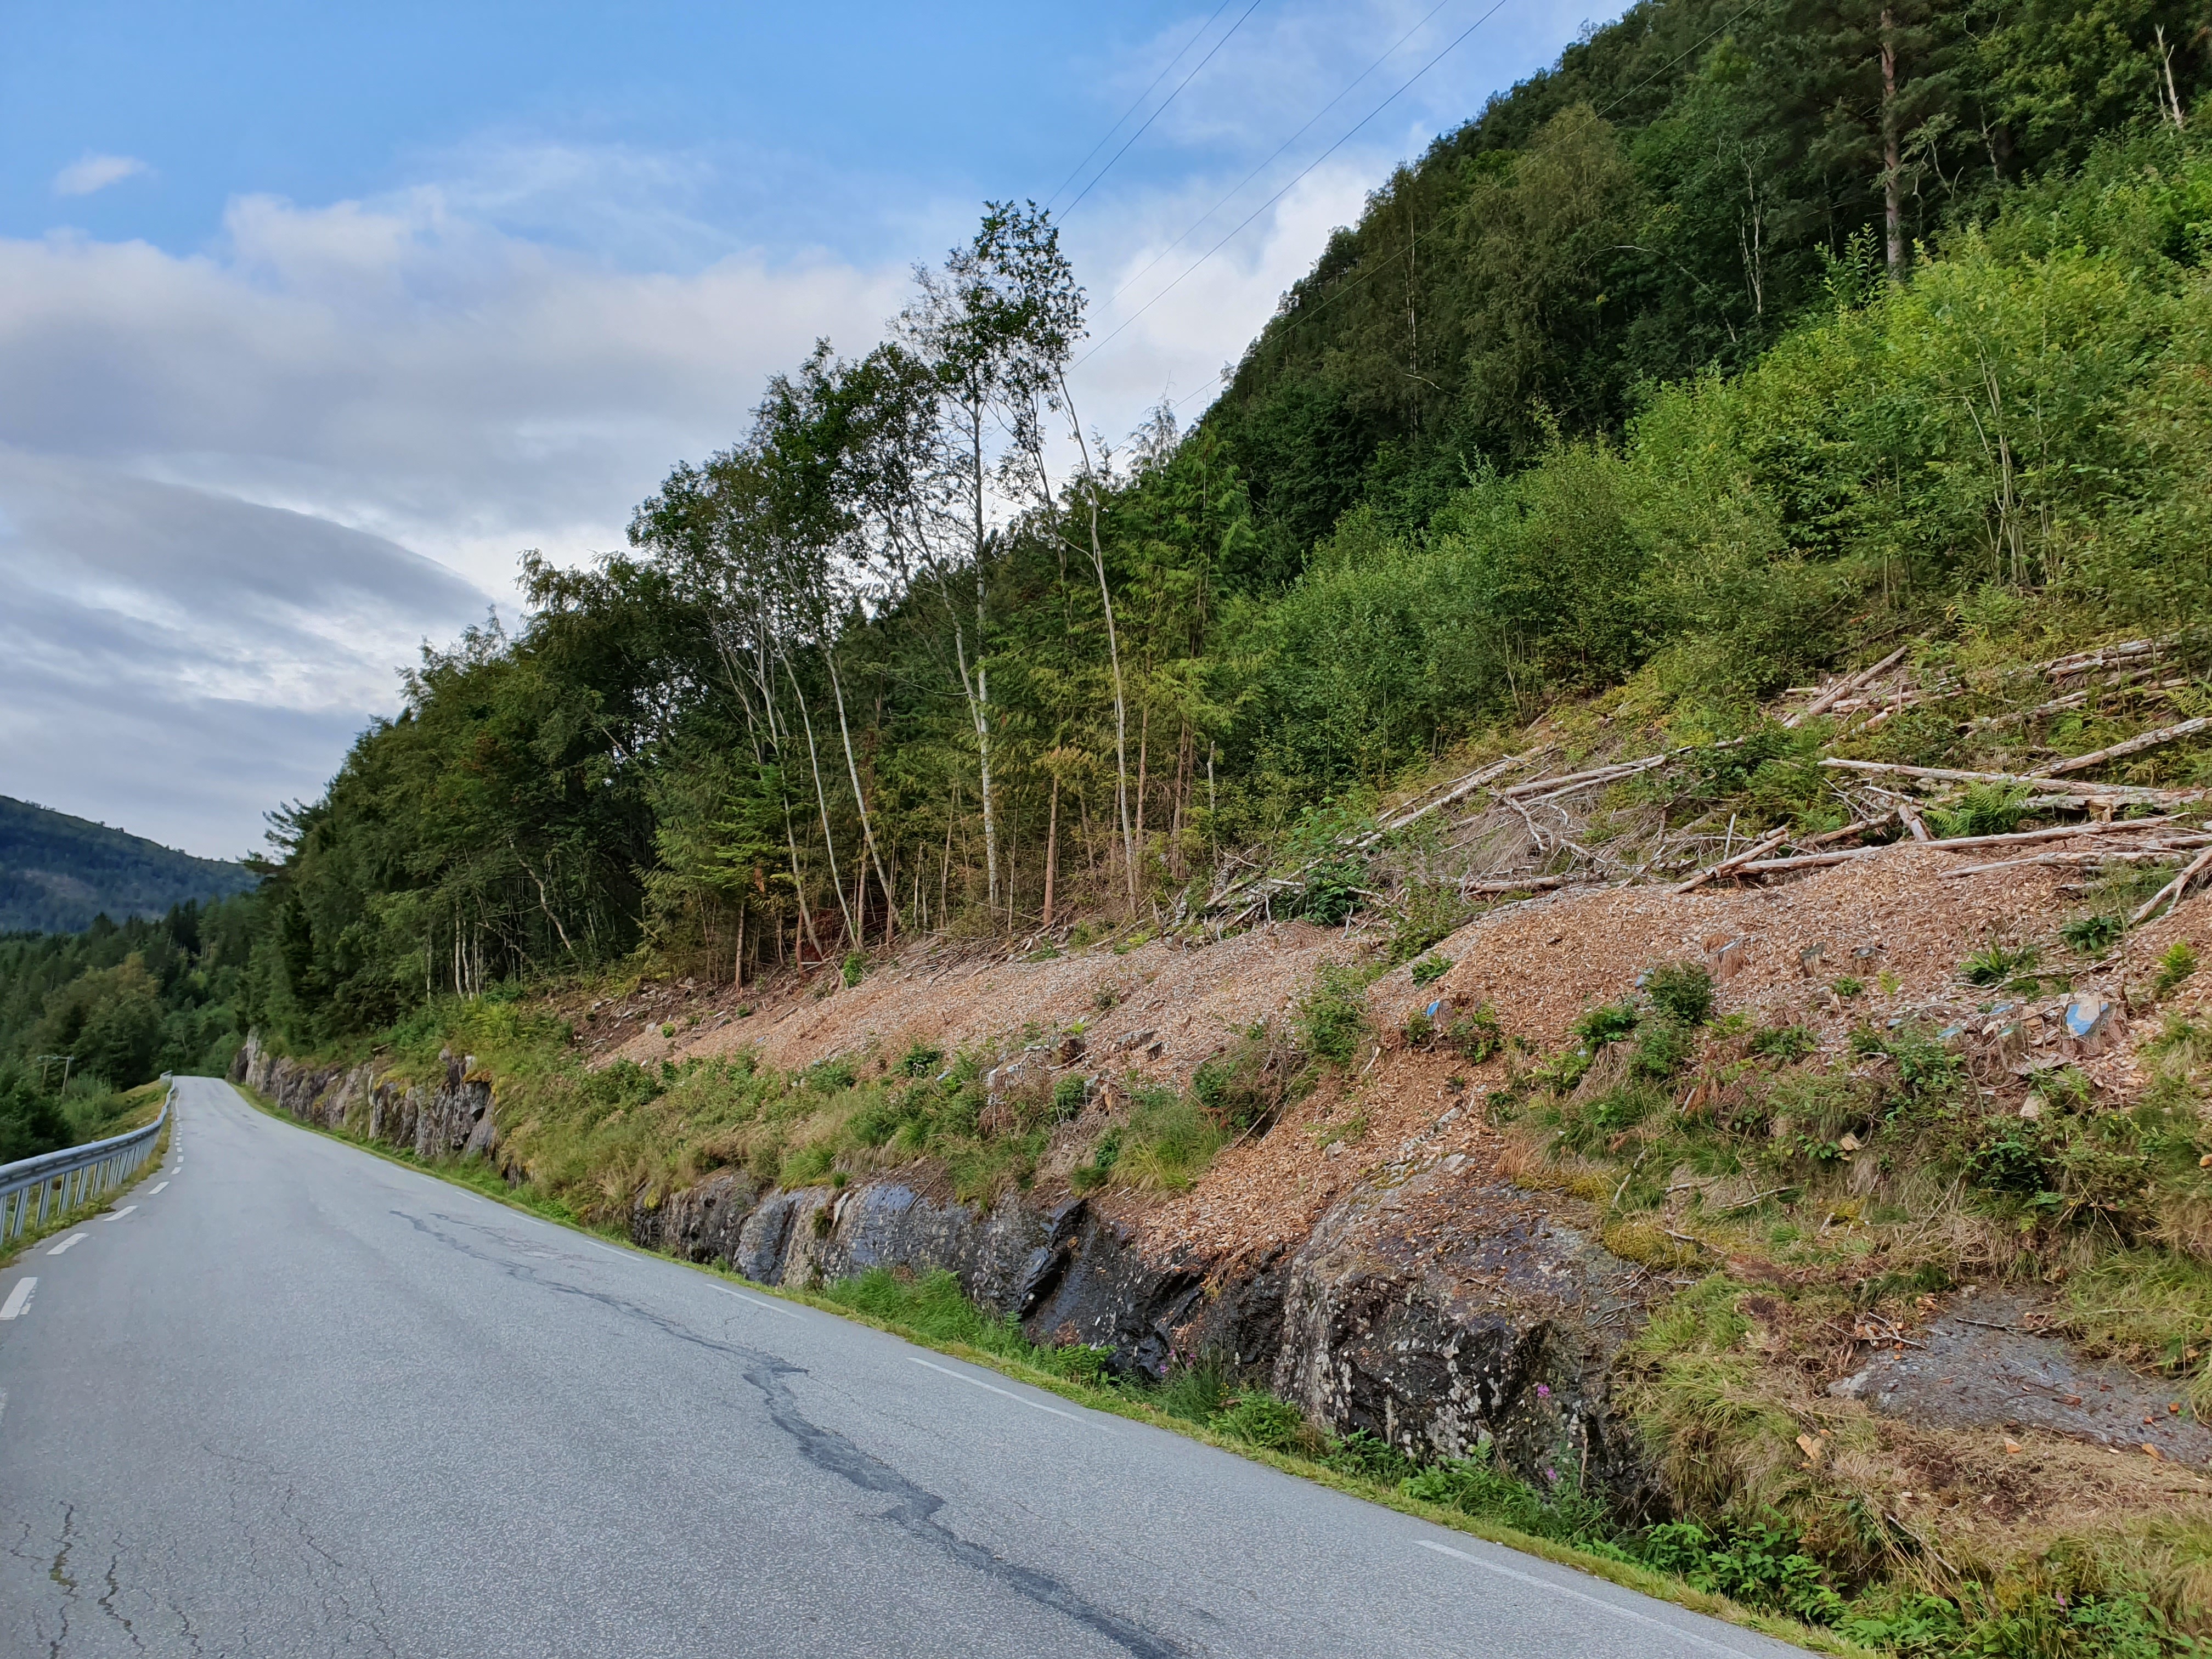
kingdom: Plantae
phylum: Tracheophyta
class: Pinopsida
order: Pinales
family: Cupressaceae
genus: Thuja
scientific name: Thuja plicata
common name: Western red-cedar
